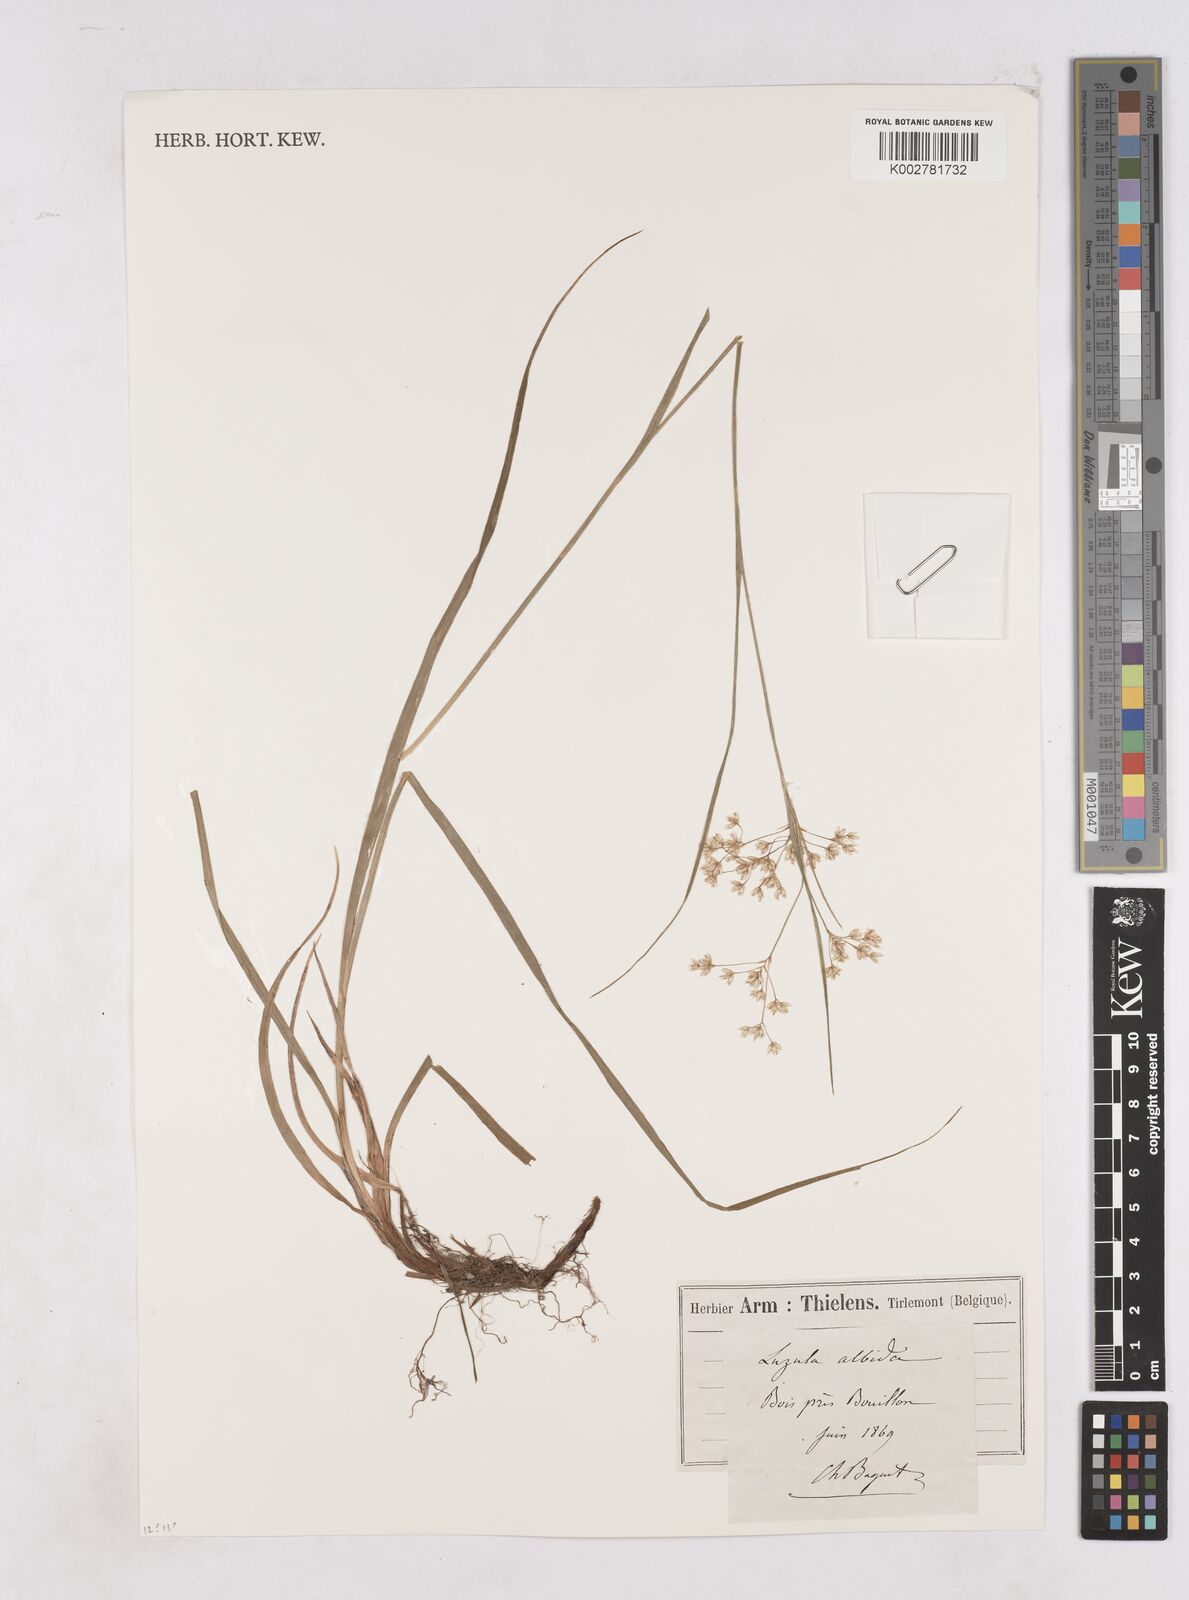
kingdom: Plantae
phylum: Tracheophyta
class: Liliopsida
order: Poales
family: Juncaceae
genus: Luzula
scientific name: Luzula luzuloides
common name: White wood-rush
